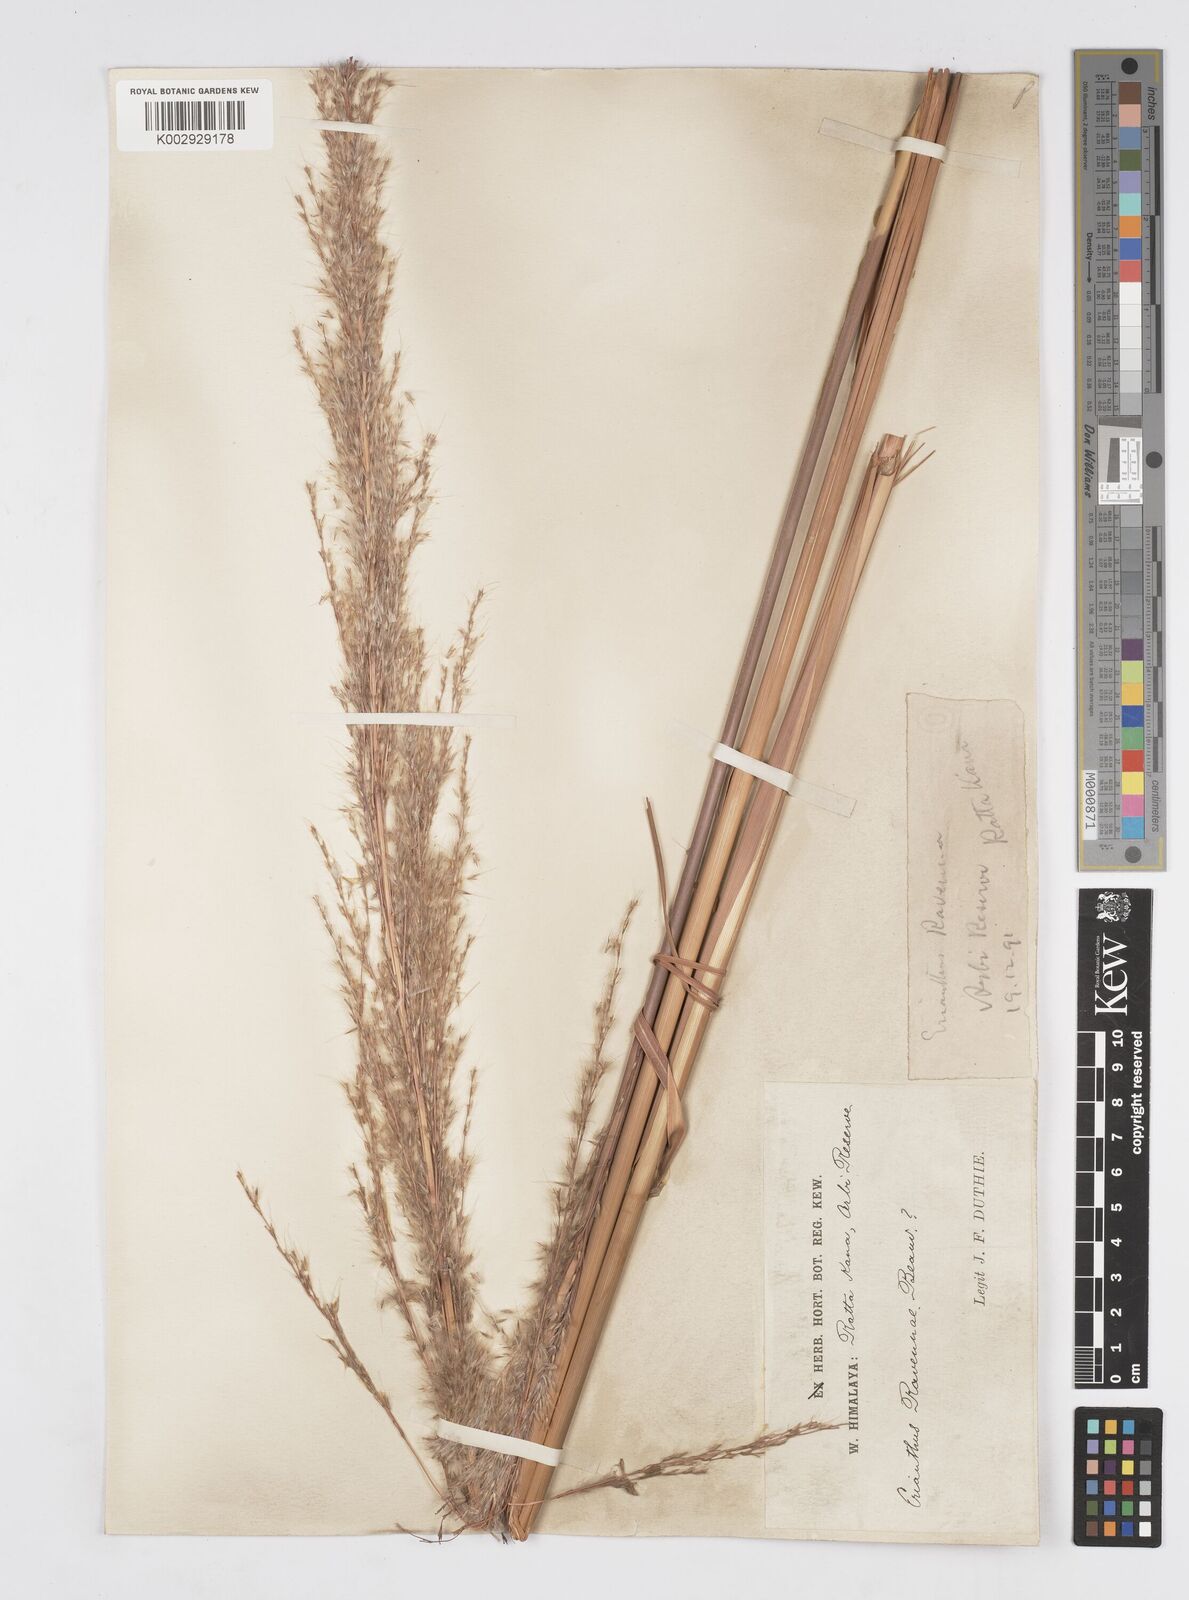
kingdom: Plantae
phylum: Tracheophyta
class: Liliopsida
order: Poales
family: Poaceae
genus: Tripidium
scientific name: Tripidium ravennae
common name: Ravenna grass
